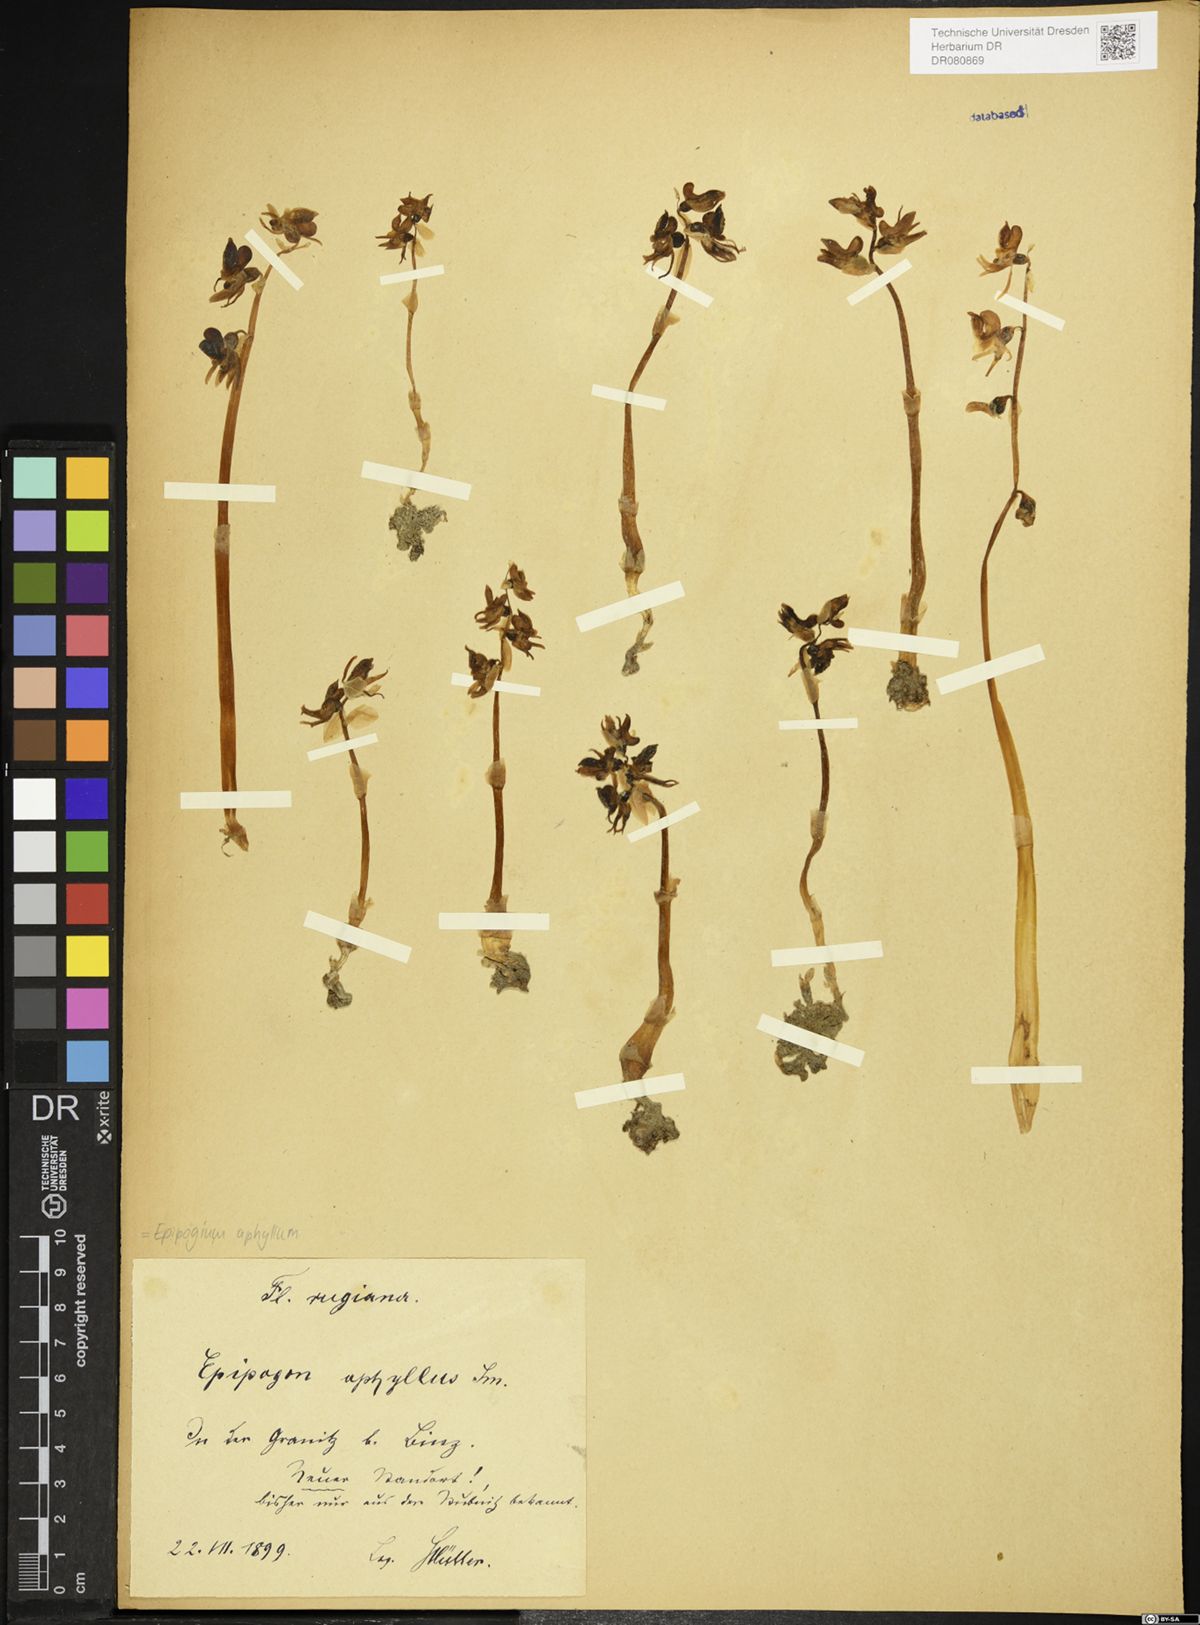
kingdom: Plantae
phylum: Tracheophyta
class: Liliopsida
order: Asparagales
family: Orchidaceae
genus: Epipogium
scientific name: Epipogium aphyllum
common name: Ghost orchid
